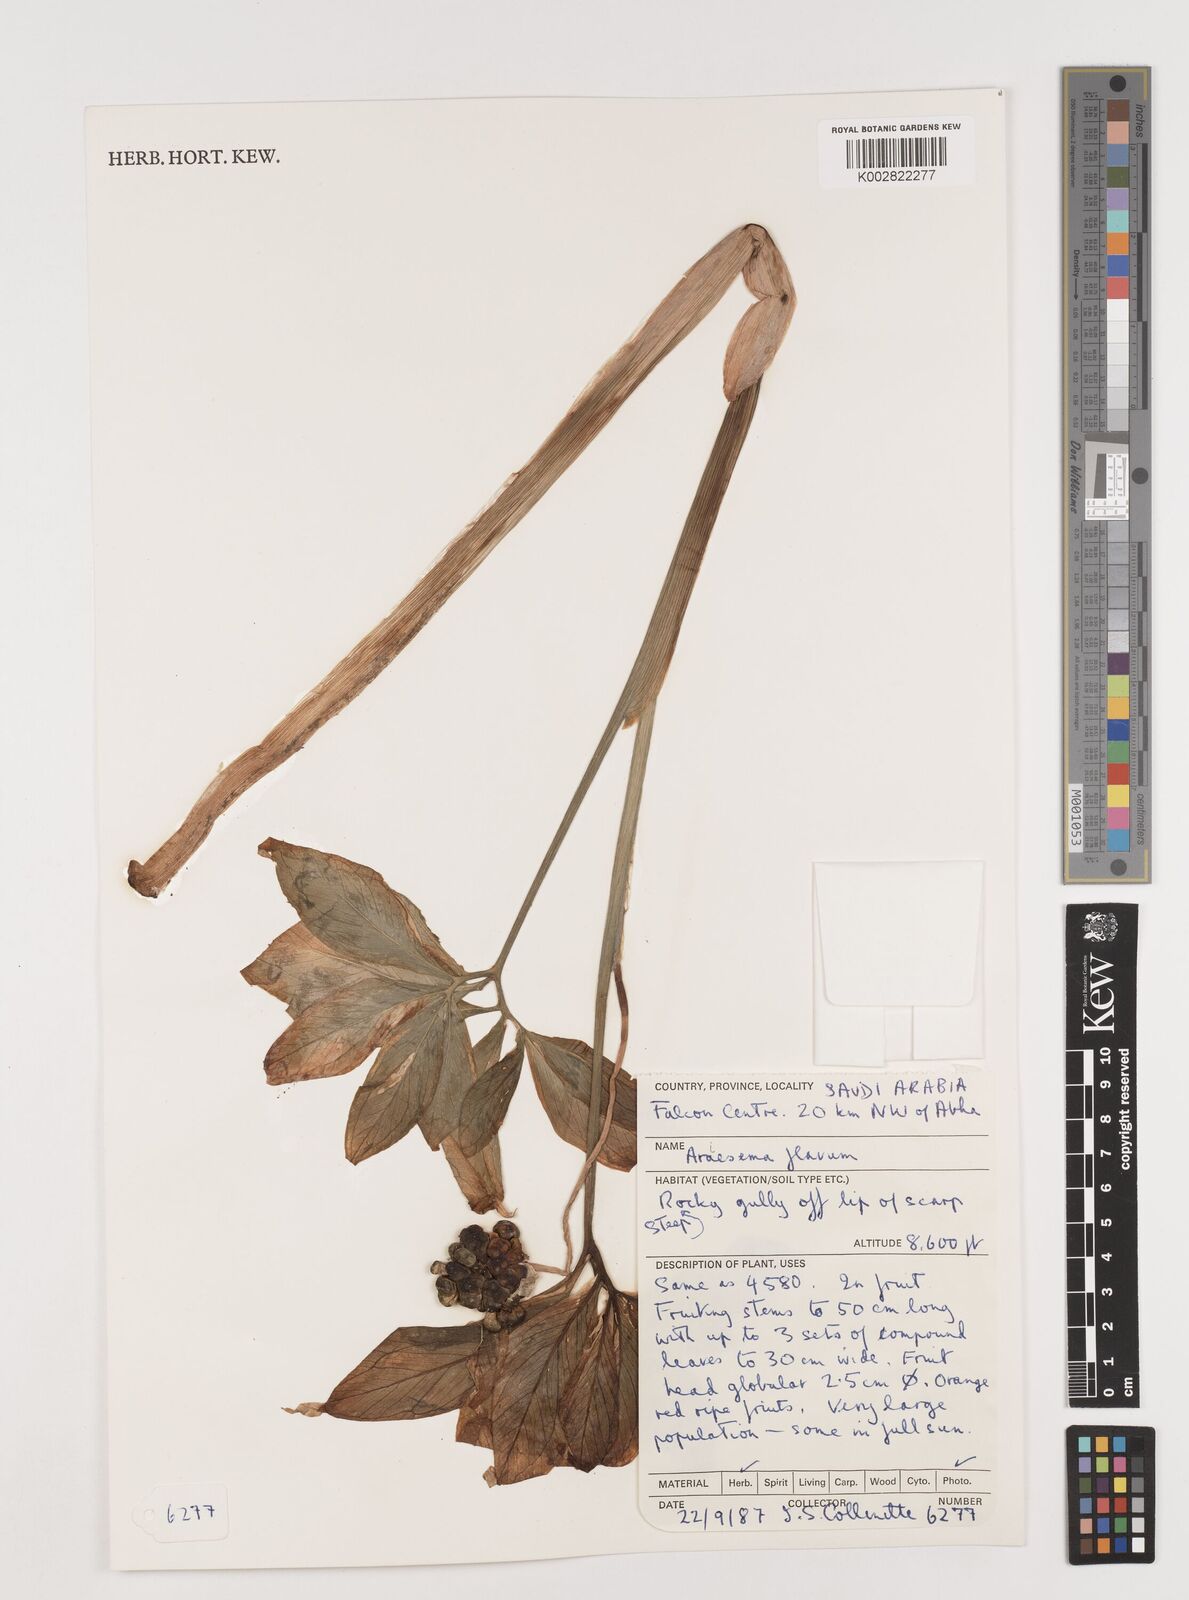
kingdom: Plantae
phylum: Tracheophyta
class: Liliopsida
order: Alismatales
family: Araceae
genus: Arisaema
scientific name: Arisaema flavum
